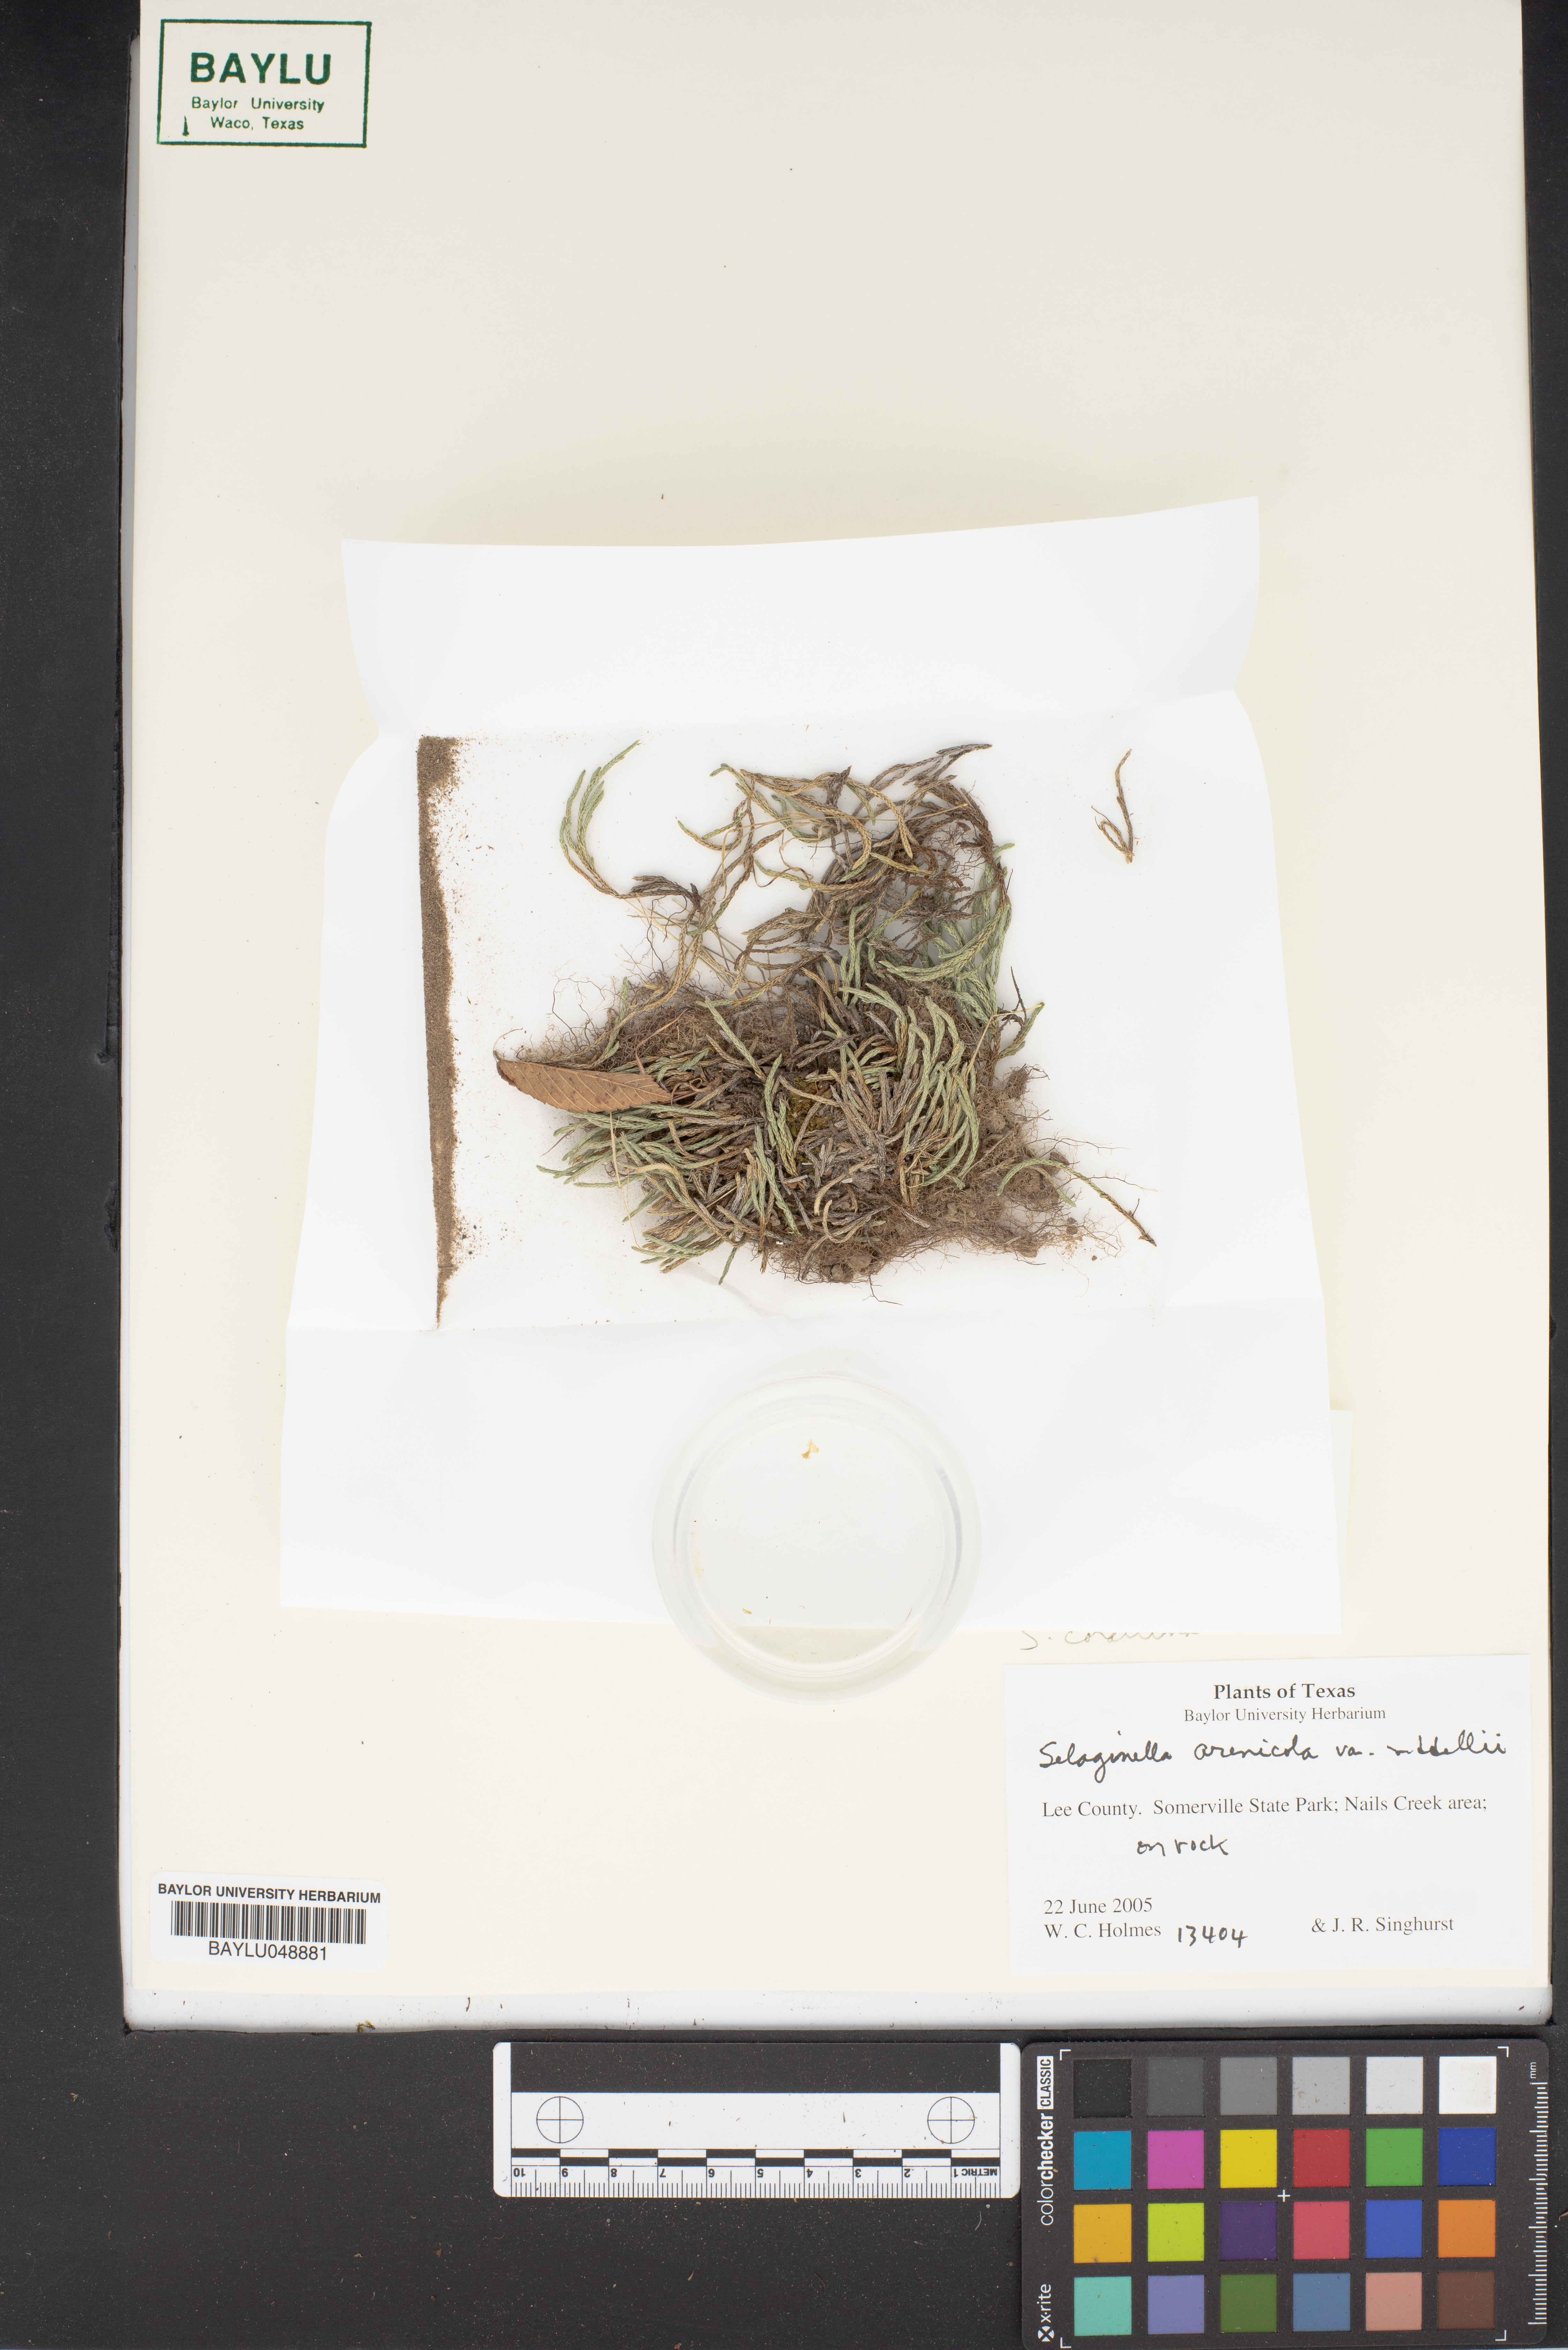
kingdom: Plantae
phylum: Tracheophyta
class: Lycopodiopsida
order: Selaginellales
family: Selaginellaceae
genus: Selaginella
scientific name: Selaginella corallina
